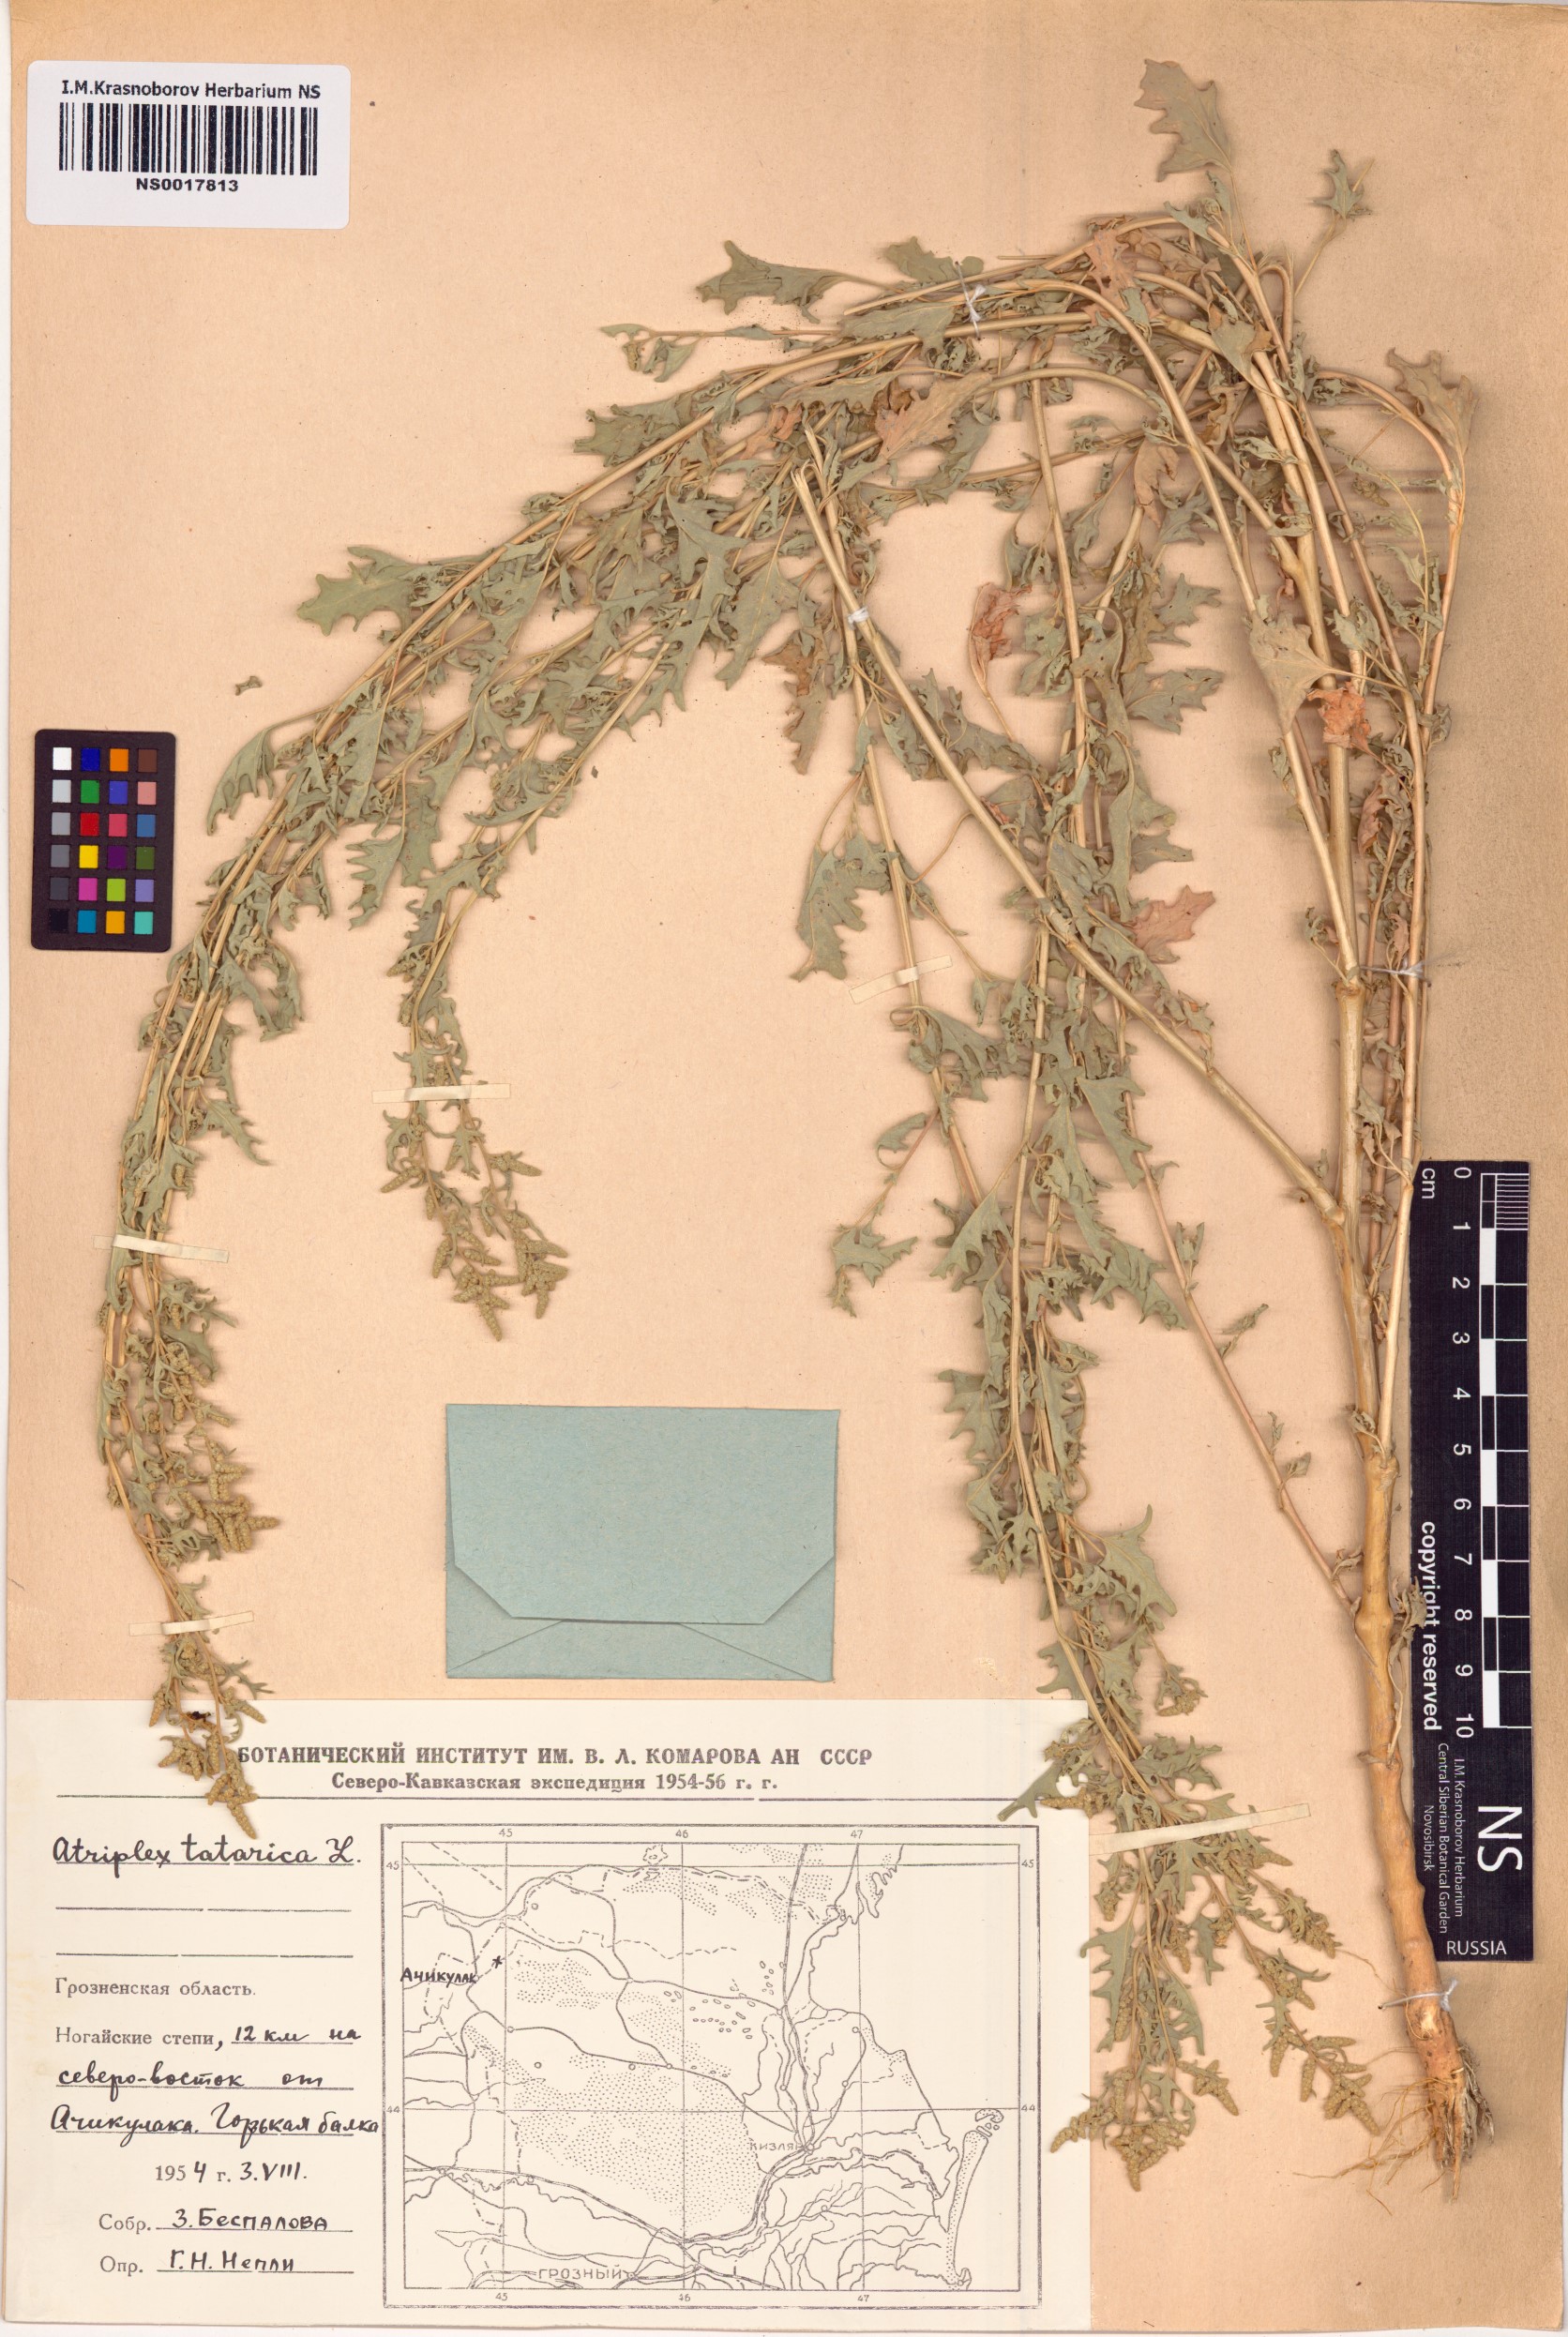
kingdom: Plantae
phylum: Tracheophyta
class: Magnoliopsida
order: Caryophyllales
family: Amaranthaceae
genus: Atriplex
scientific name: Atriplex tatarica
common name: Tatarian orache
